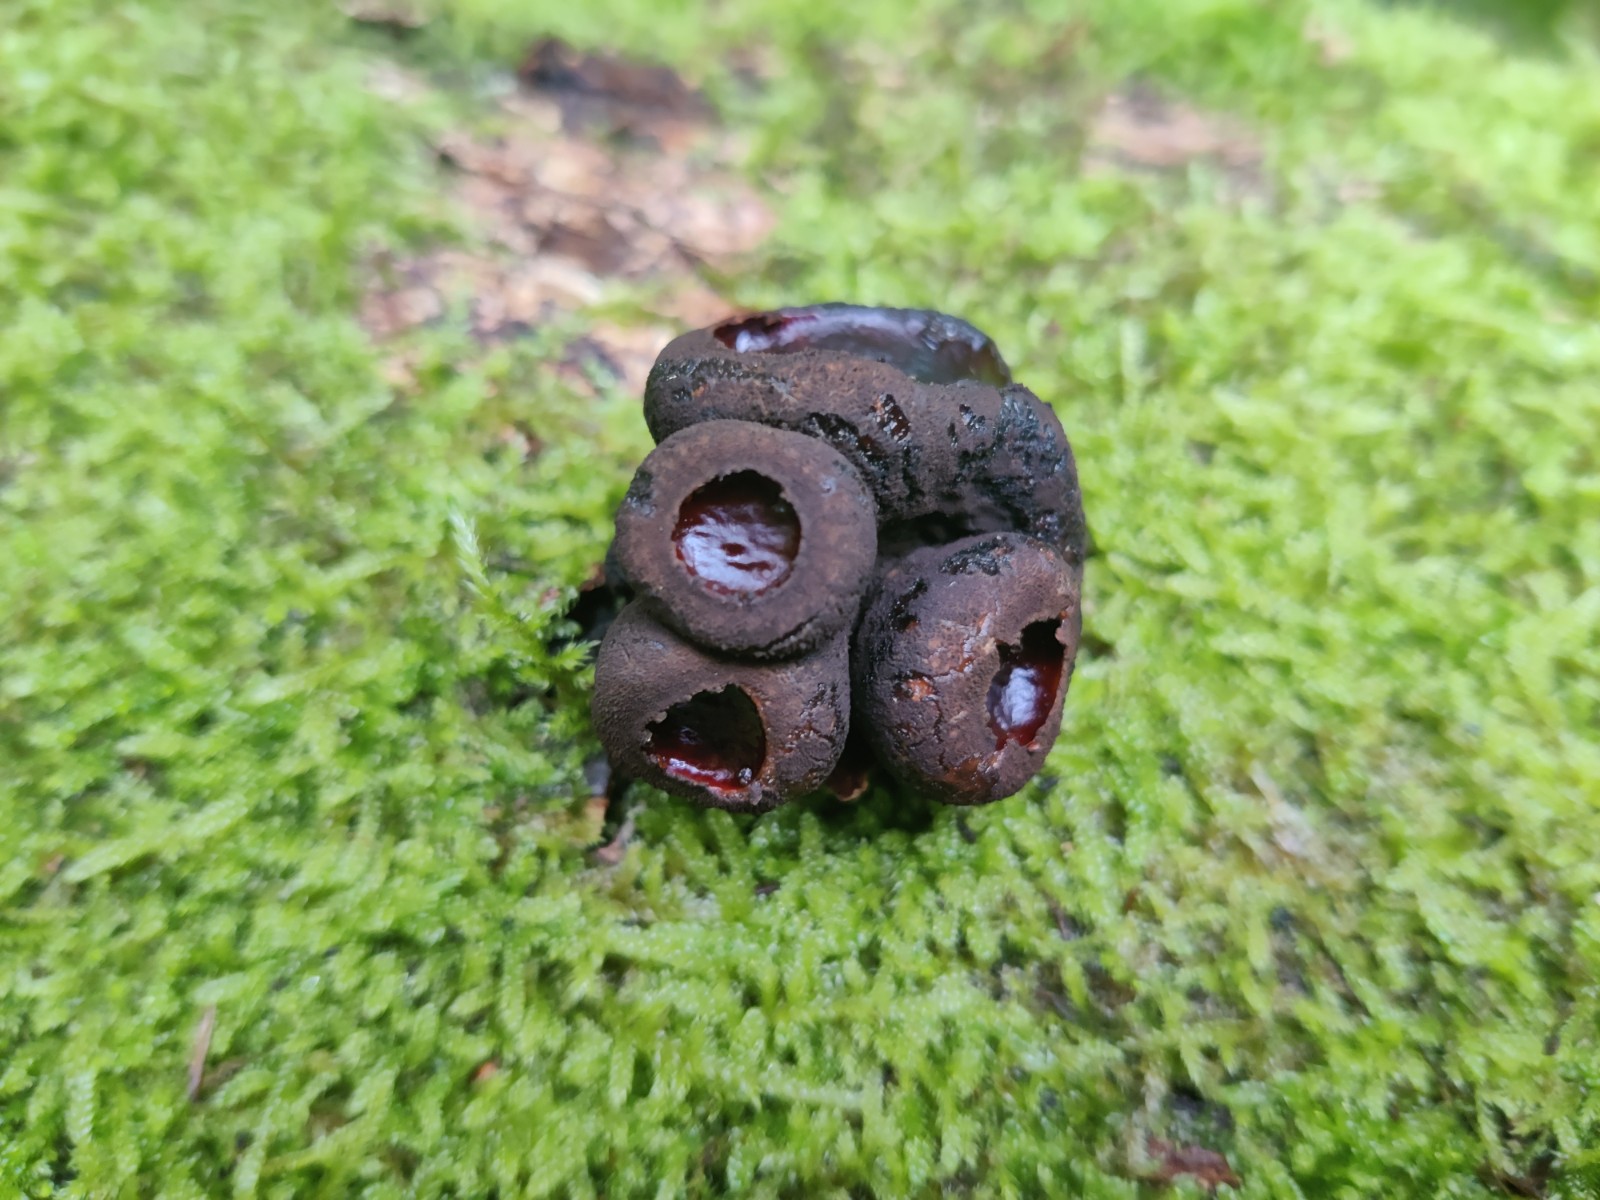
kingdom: Fungi
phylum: Ascomycota
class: Leotiomycetes
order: Phacidiales
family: Phacidiaceae
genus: Bulgaria
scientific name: Bulgaria inquinans
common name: afsmittende topsvamp
